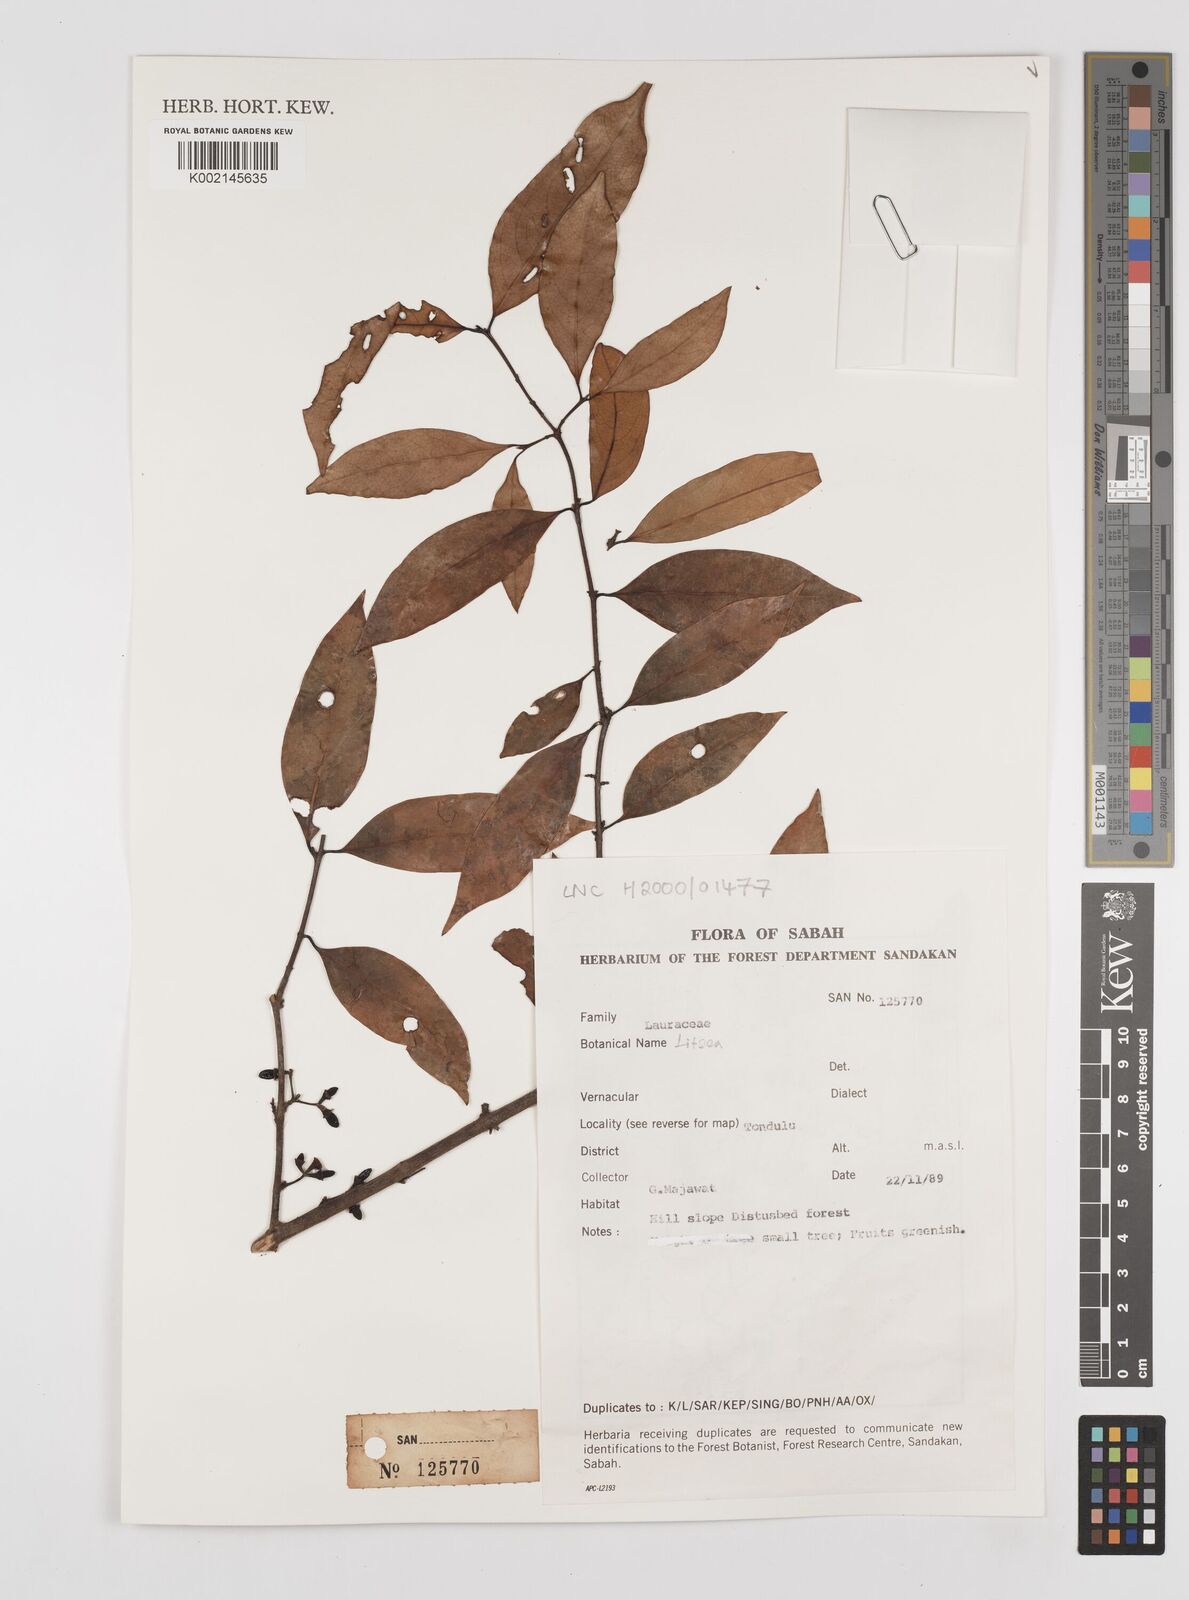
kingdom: Plantae
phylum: Tracheophyta
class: Magnoliopsida
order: Laurales
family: Lauraceae
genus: Litsea
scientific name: Litsea
